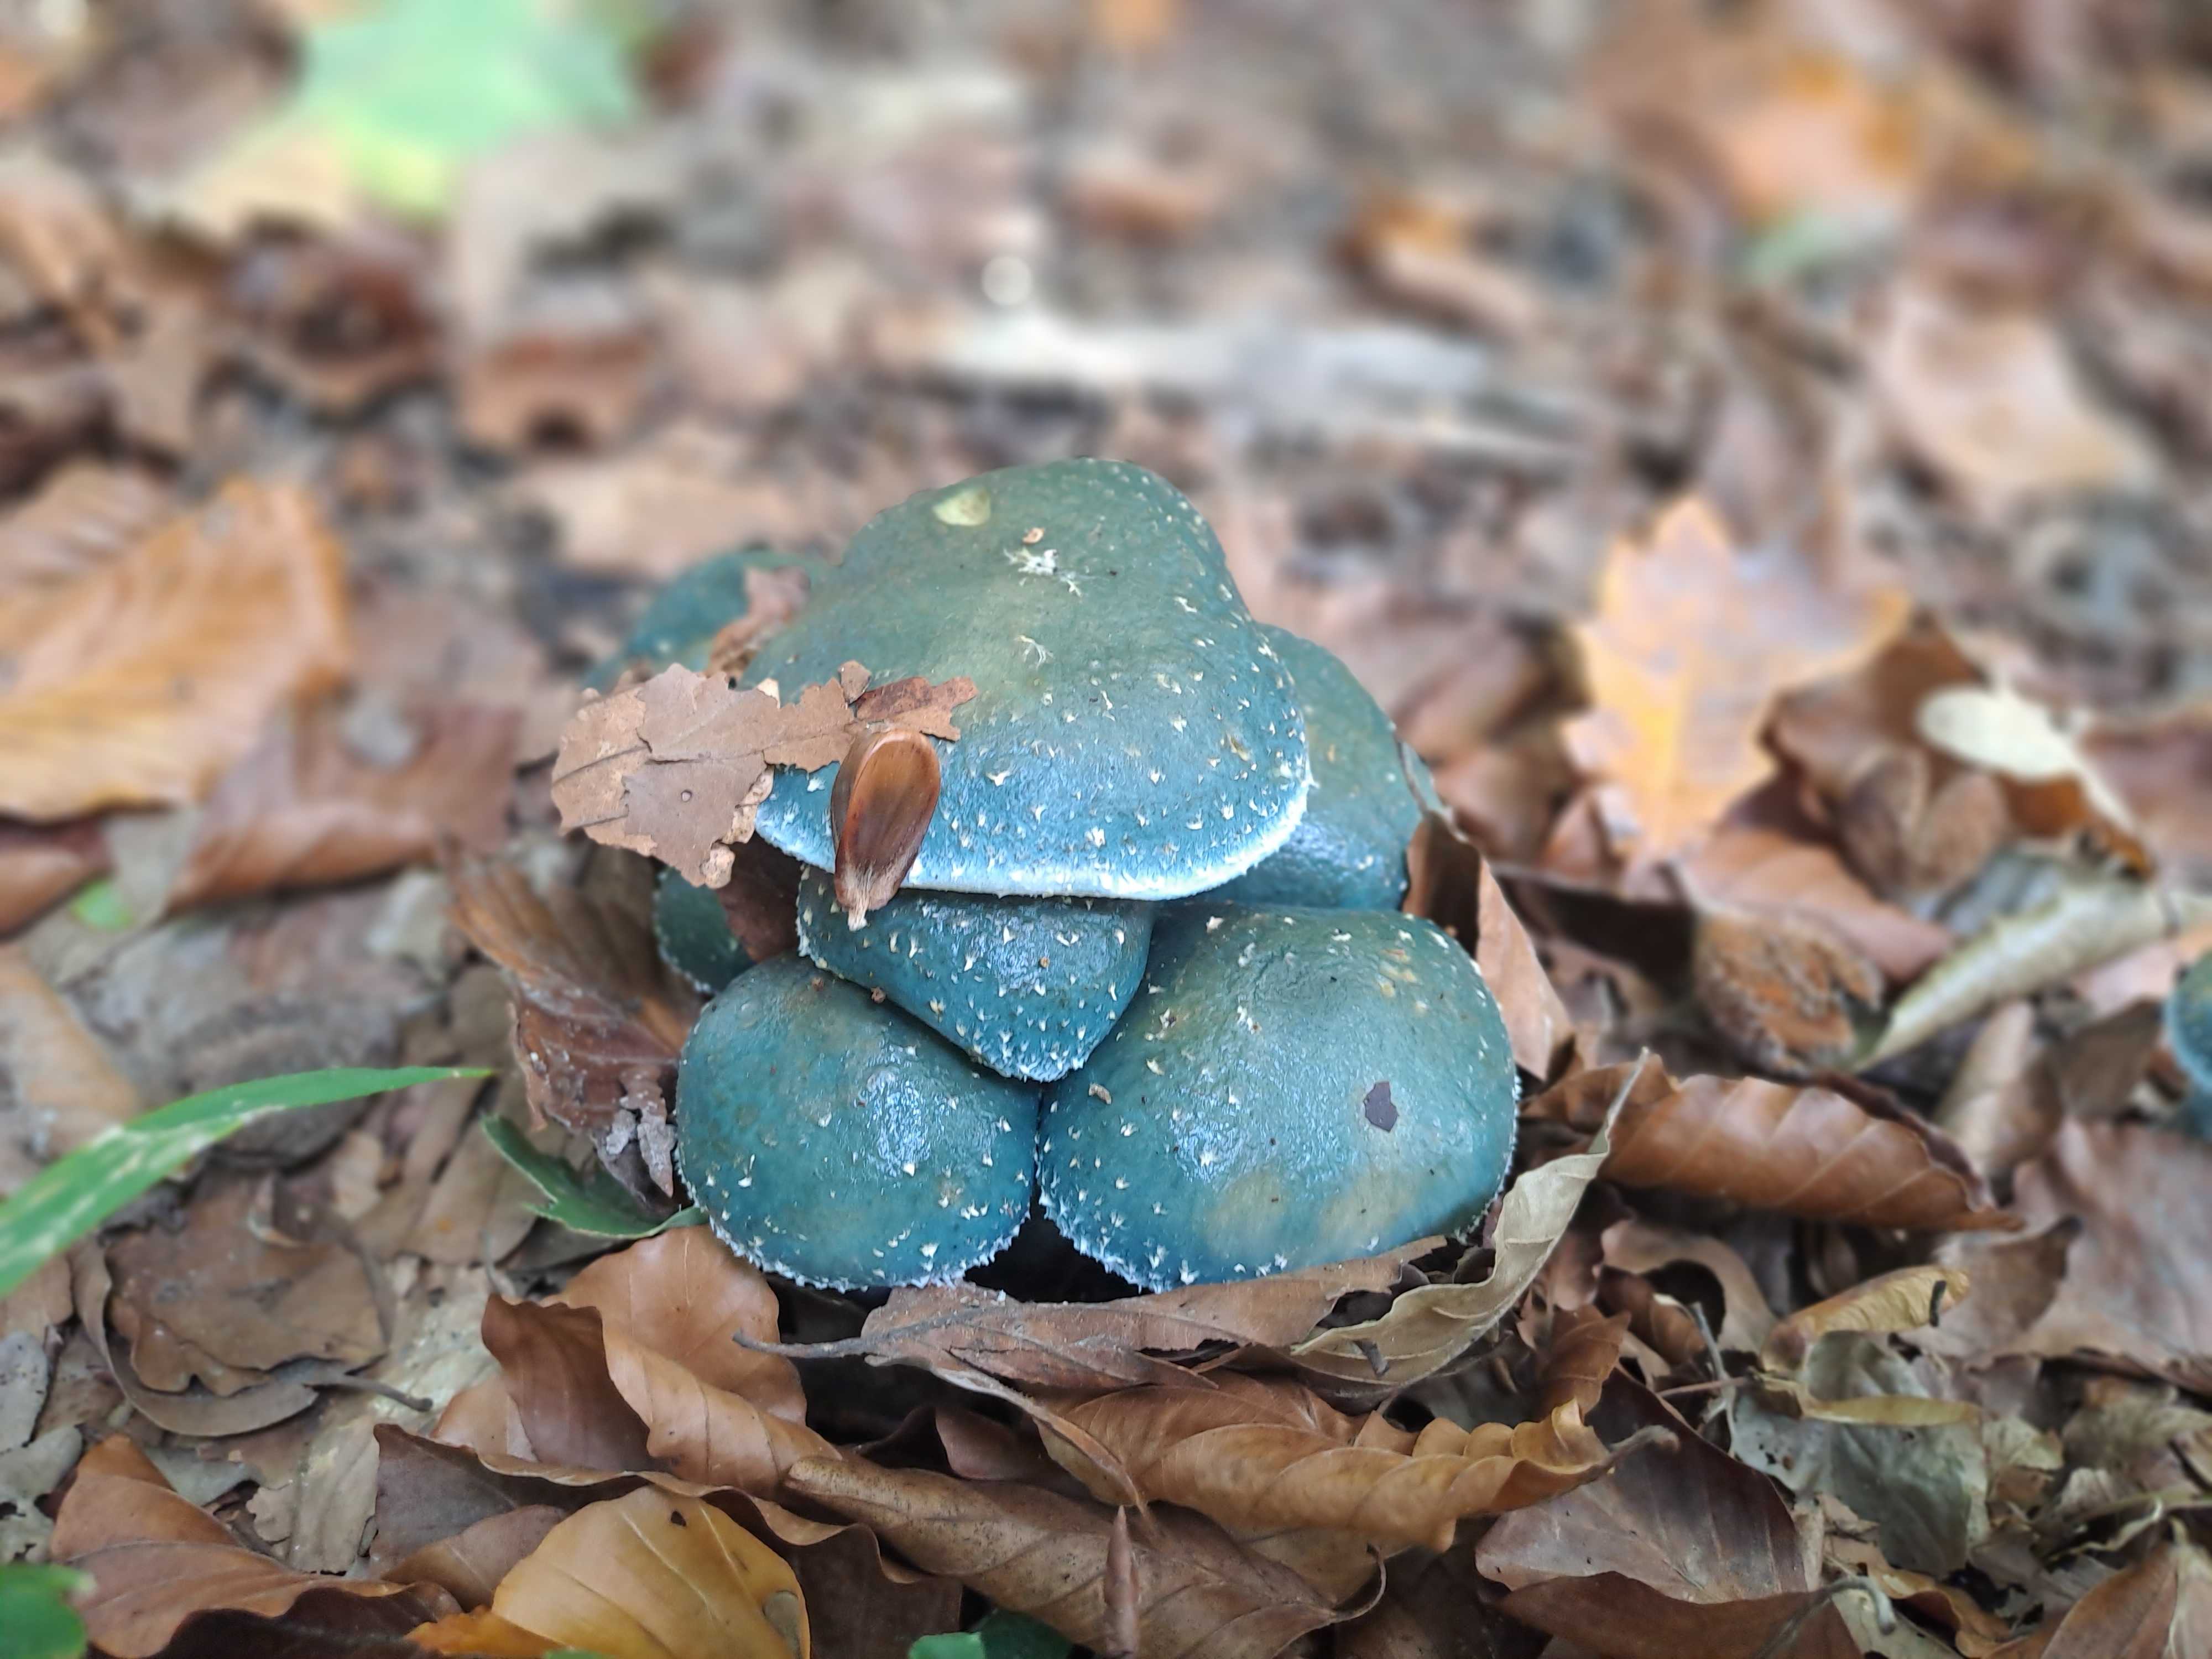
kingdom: Fungi
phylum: Basidiomycota
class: Agaricomycetes
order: Agaricales
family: Strophariaceae
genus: Stropharia
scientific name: Stropharia cyanea
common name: blågrøn bredblad
